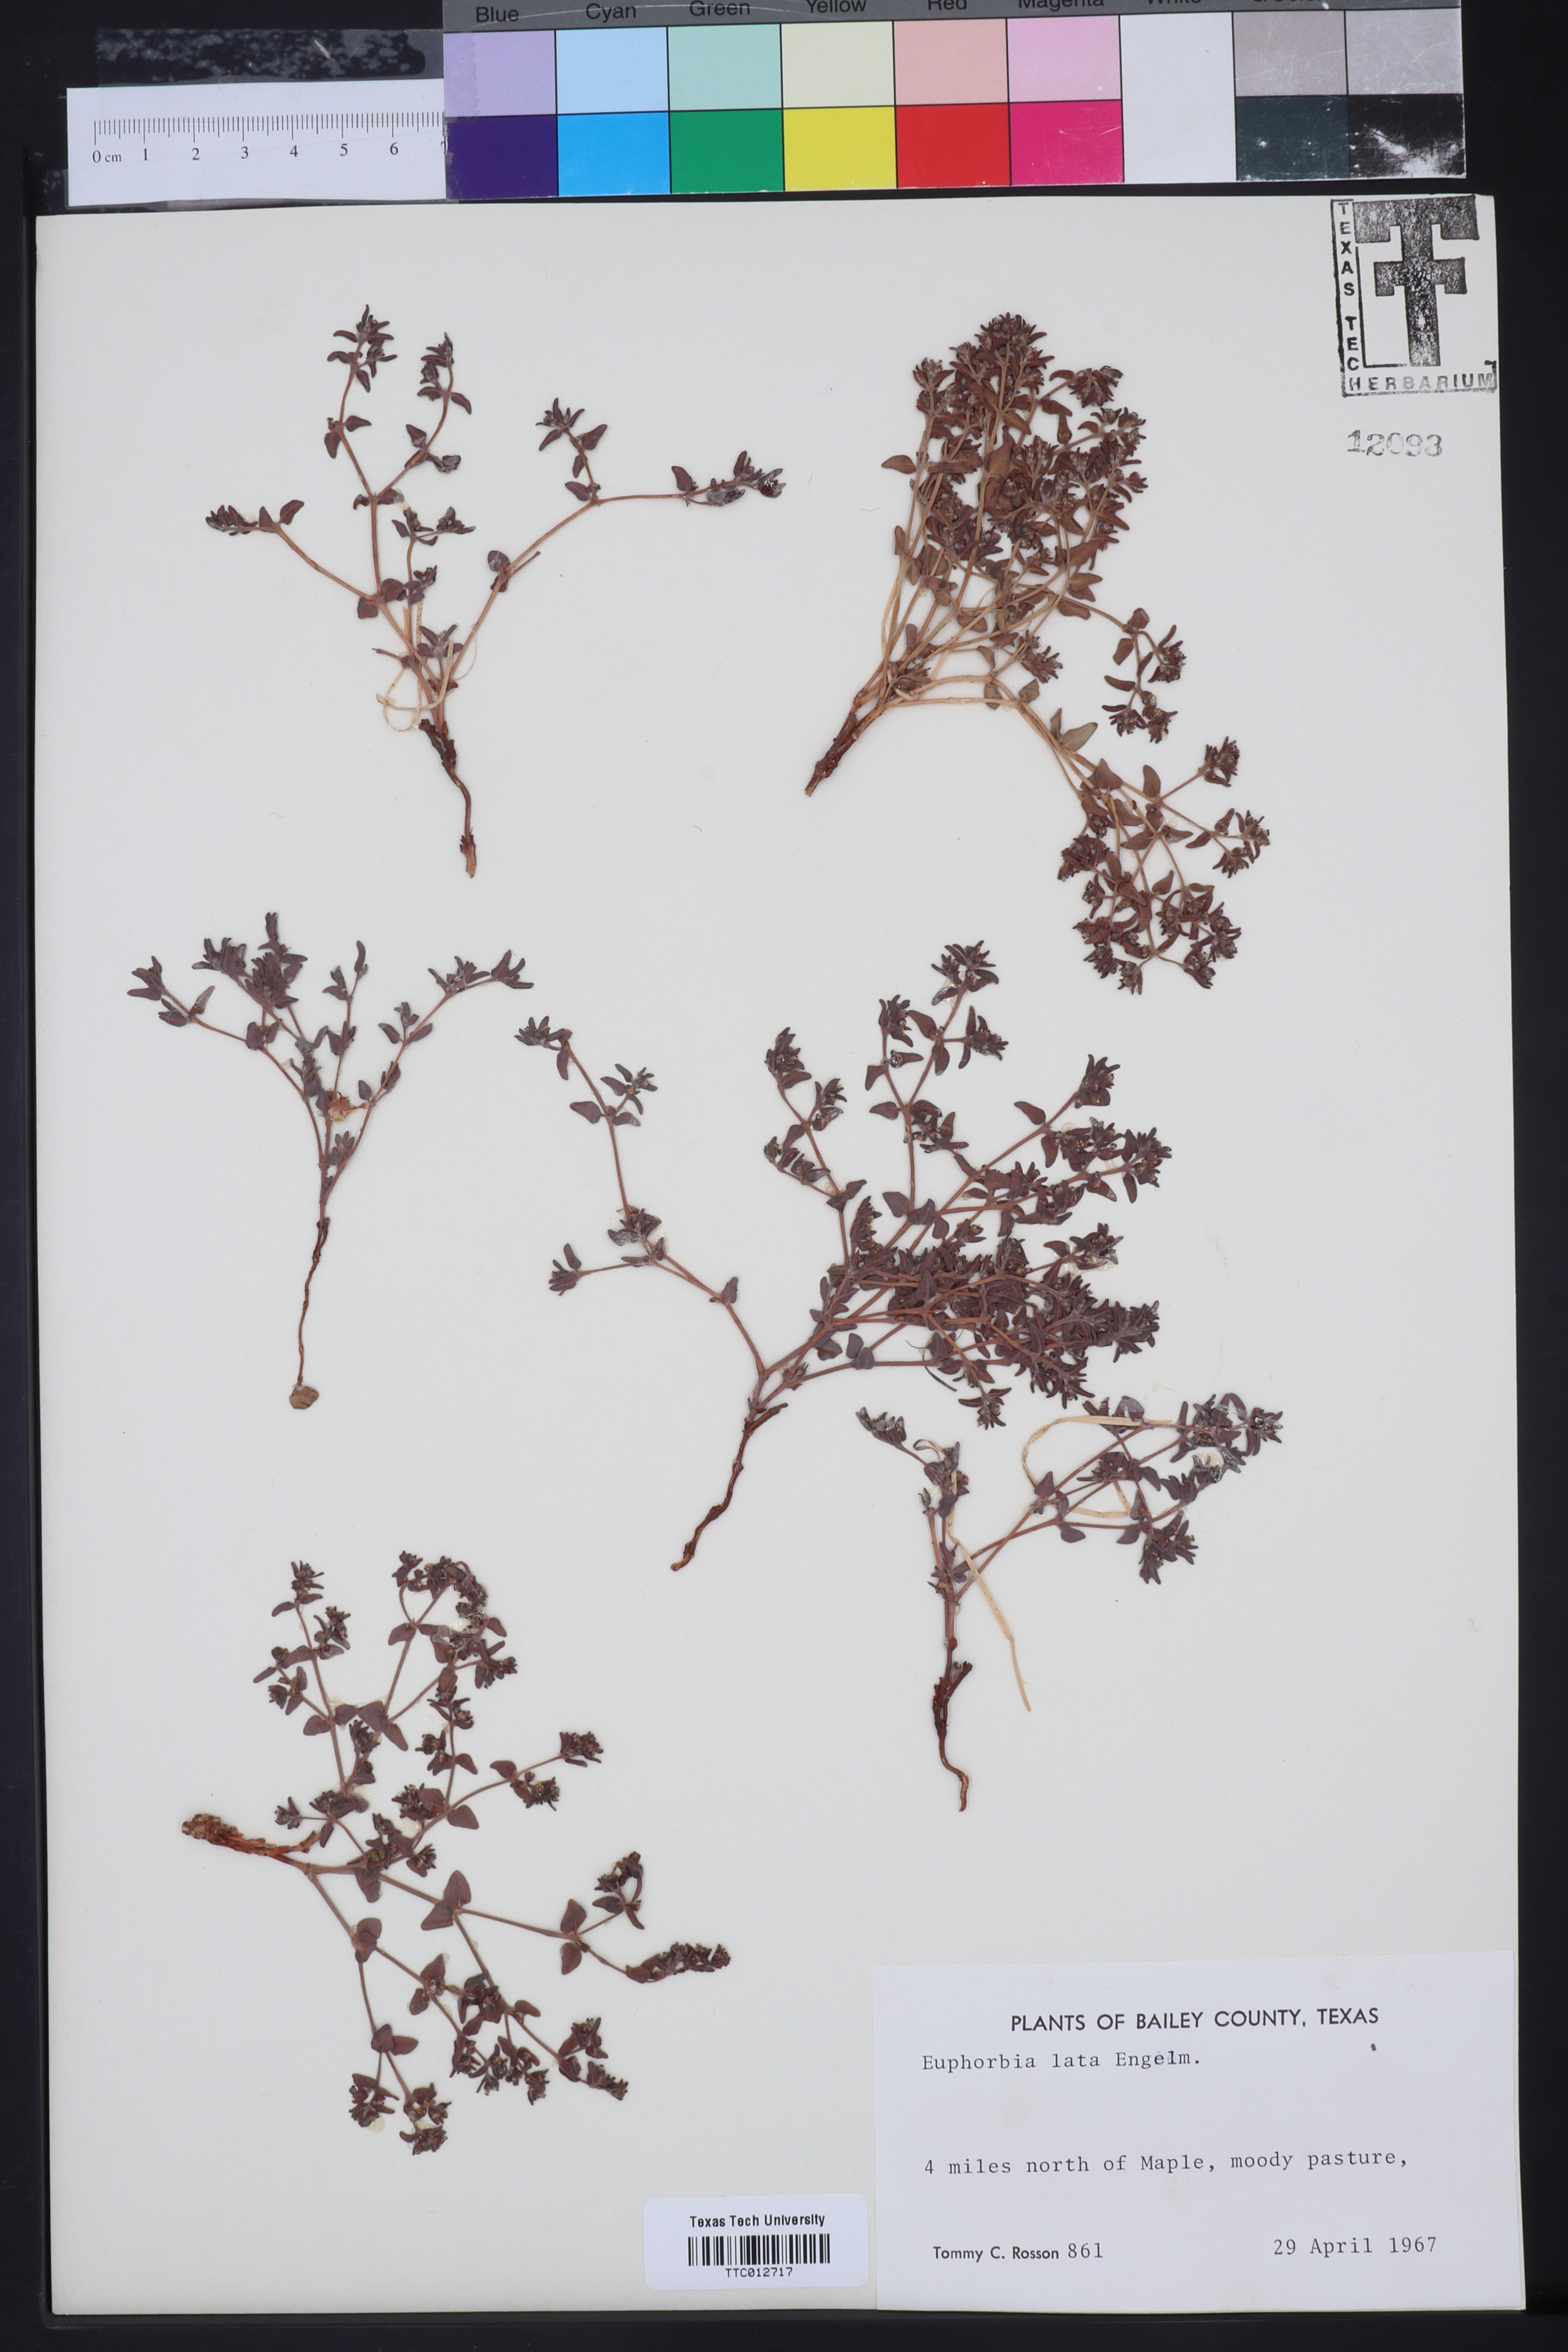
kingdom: Plantae
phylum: Tracheophyta
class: Magnoliopsida
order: Malpighiales
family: Euphorbiaceae
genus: Euphorbia
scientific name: Euphorbia lata
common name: Hoary euphorbia
